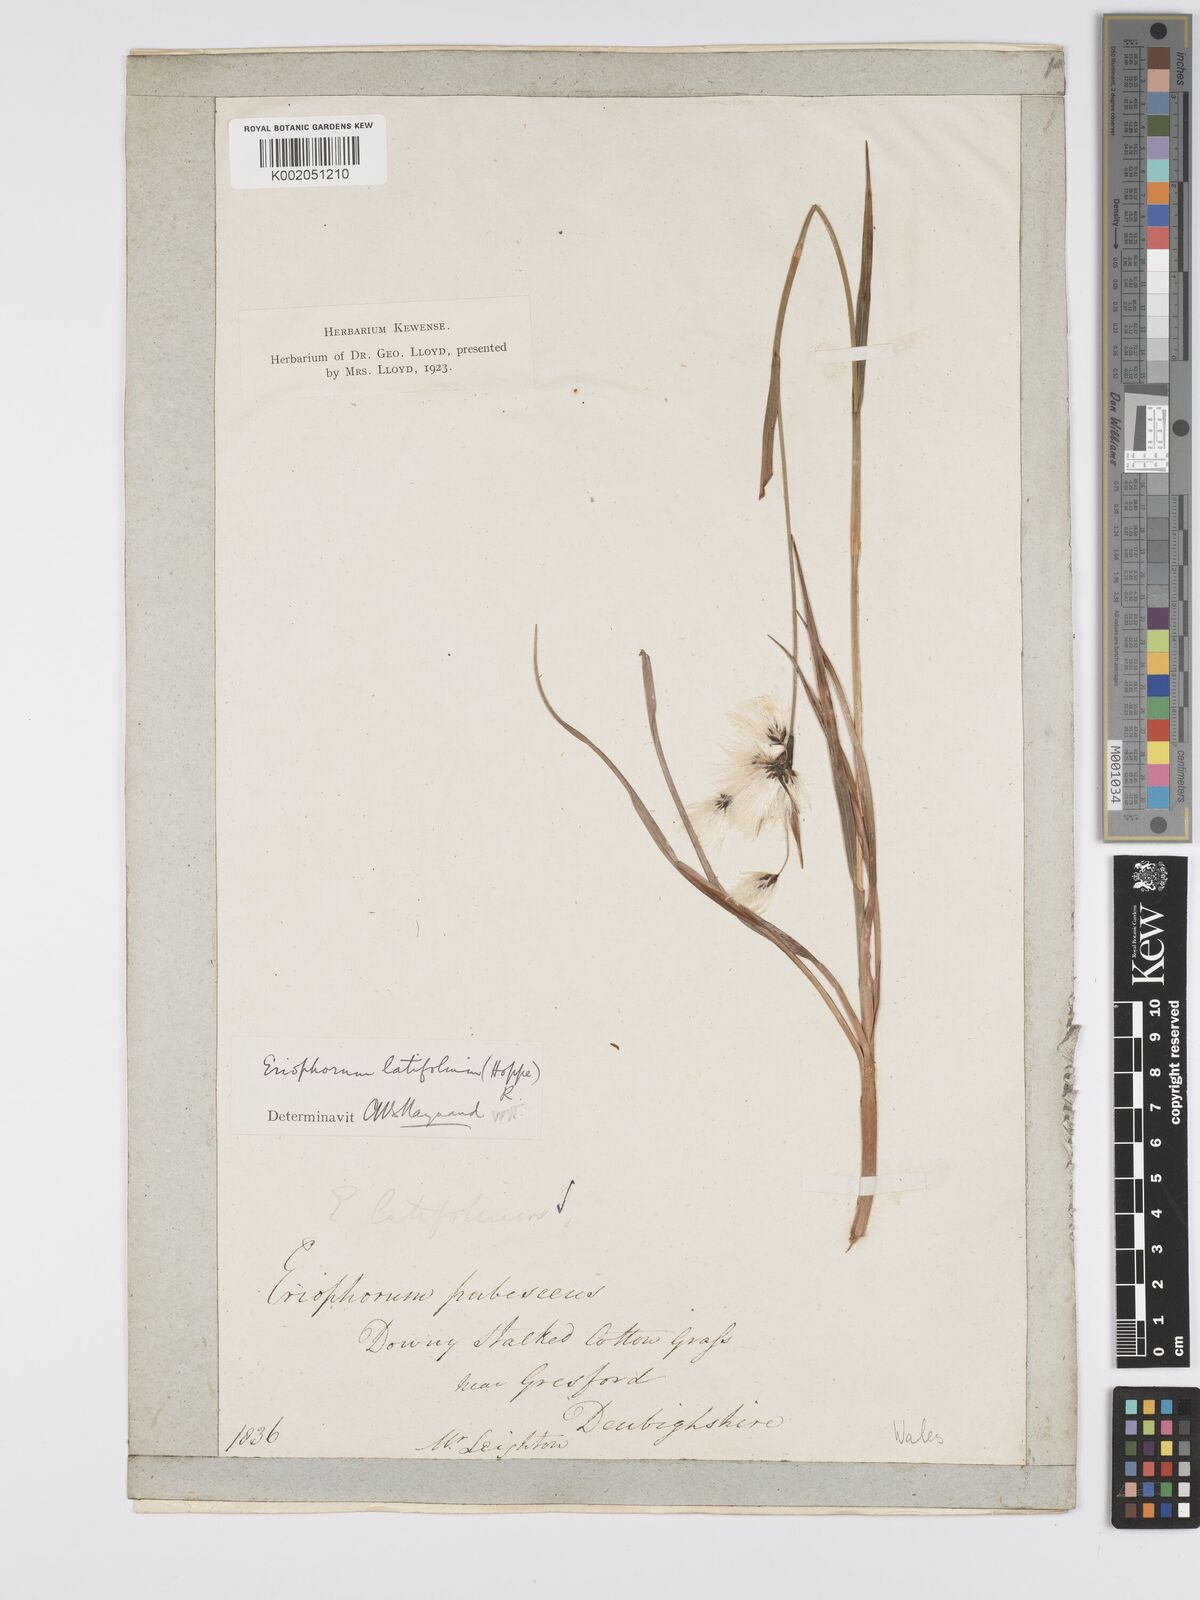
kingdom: Plantae
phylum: Tracheophyta
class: Liliopsida
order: Poales
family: Cyperaceae
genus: Eriophorum
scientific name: Eriophorum latifolium
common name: Broad-leaved cottongrass
